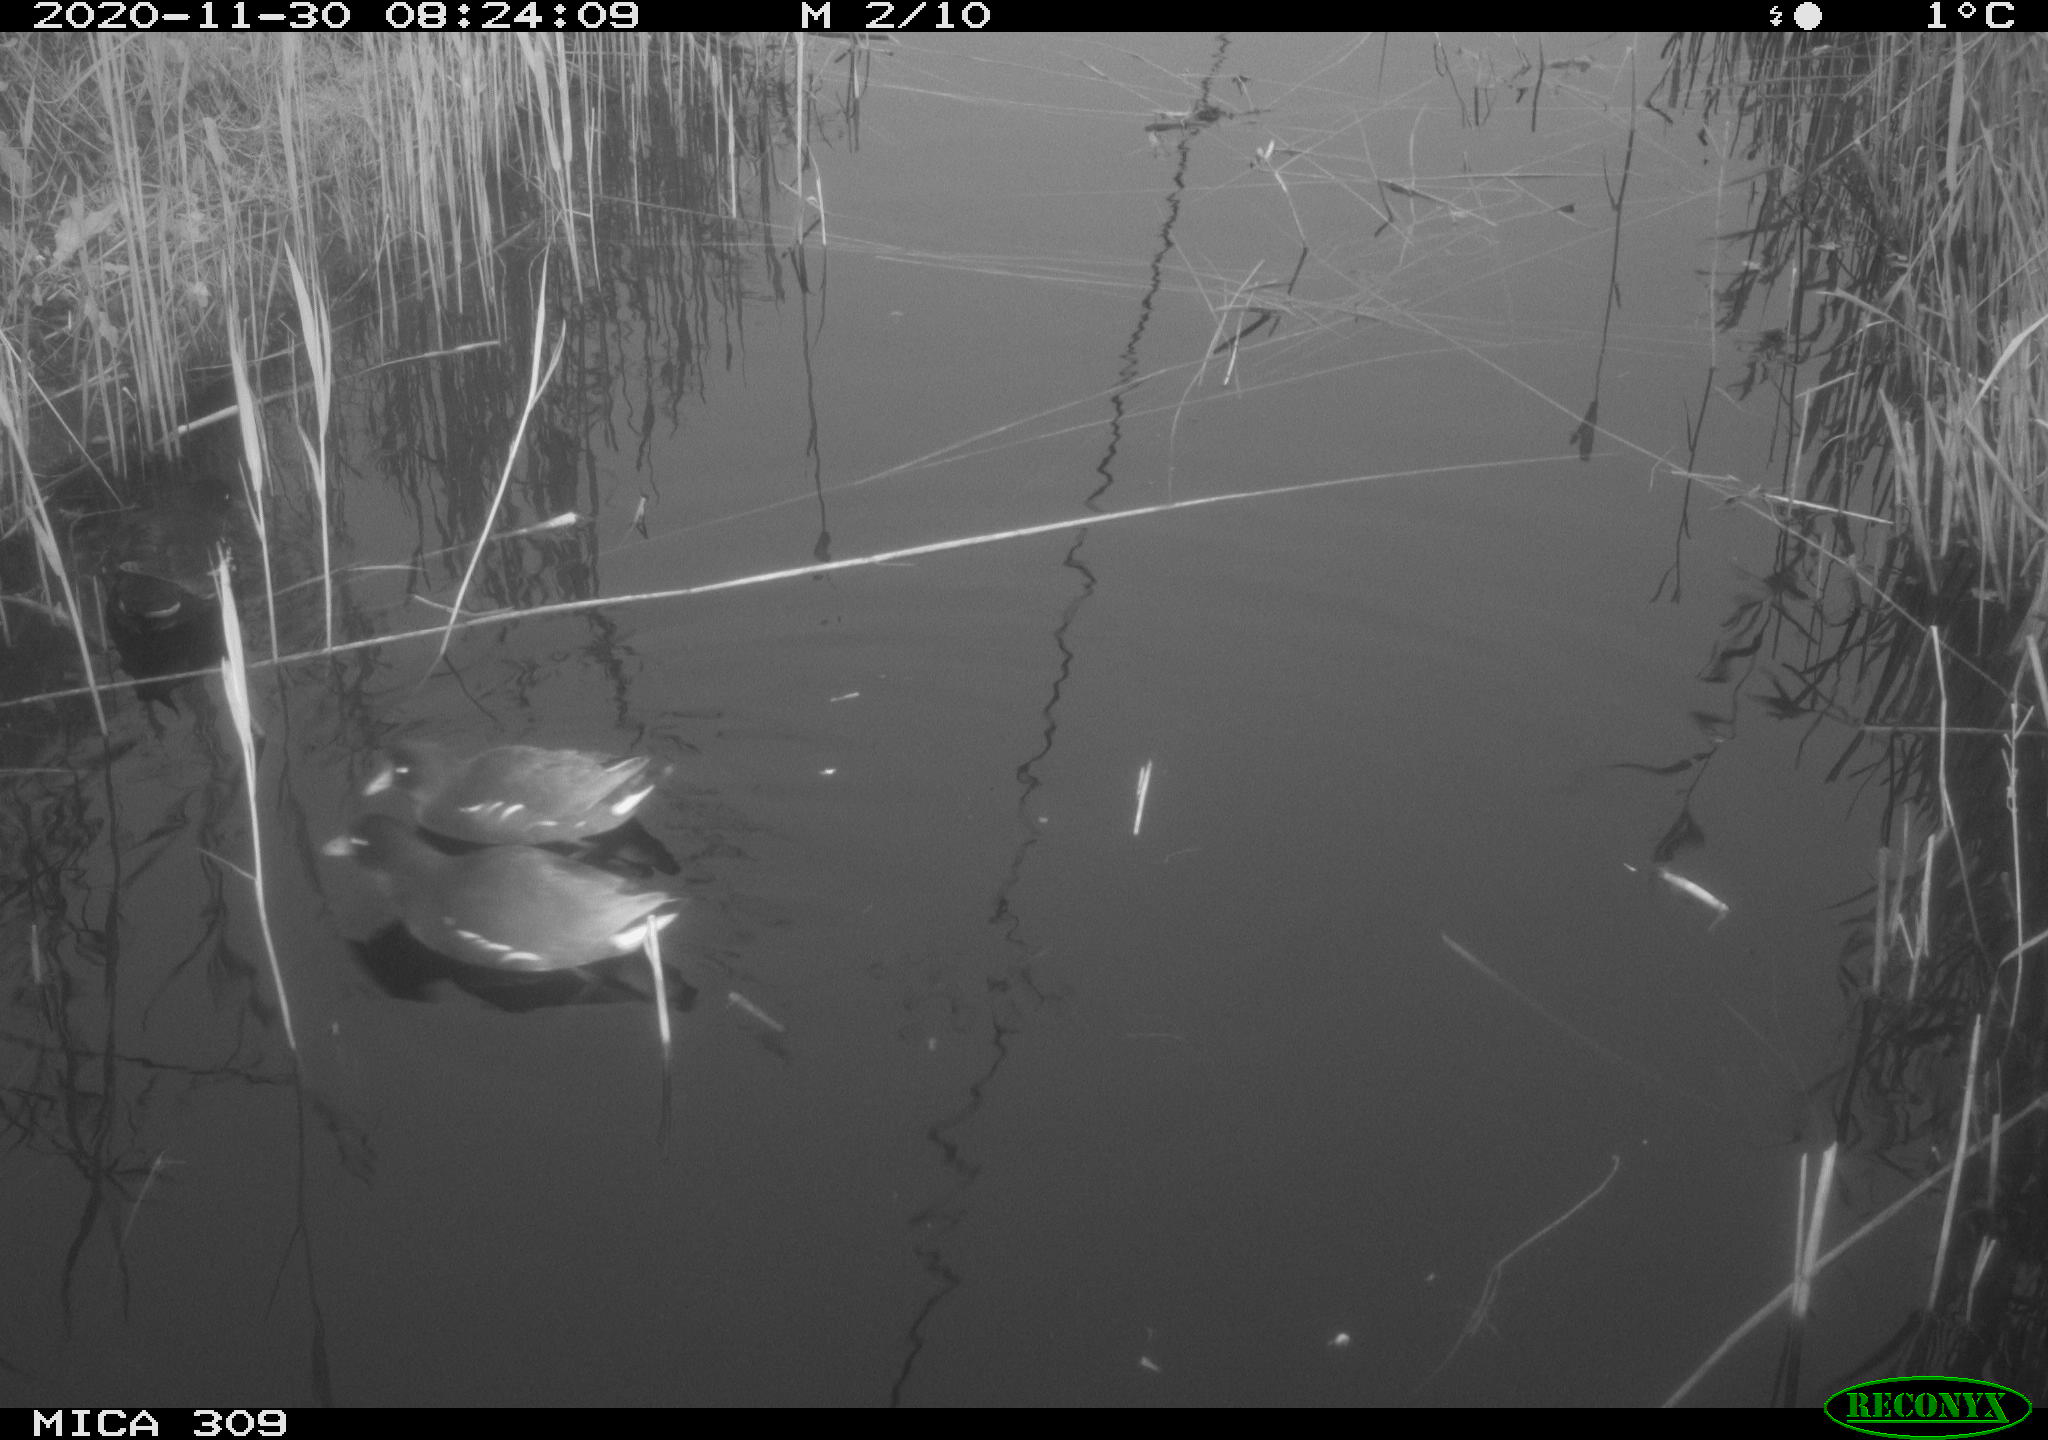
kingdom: Animalia
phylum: Chordata
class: Aves
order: Gruiformes
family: Rallidae
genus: Gallinula
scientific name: Gallinula chloropus
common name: Common moorhen
